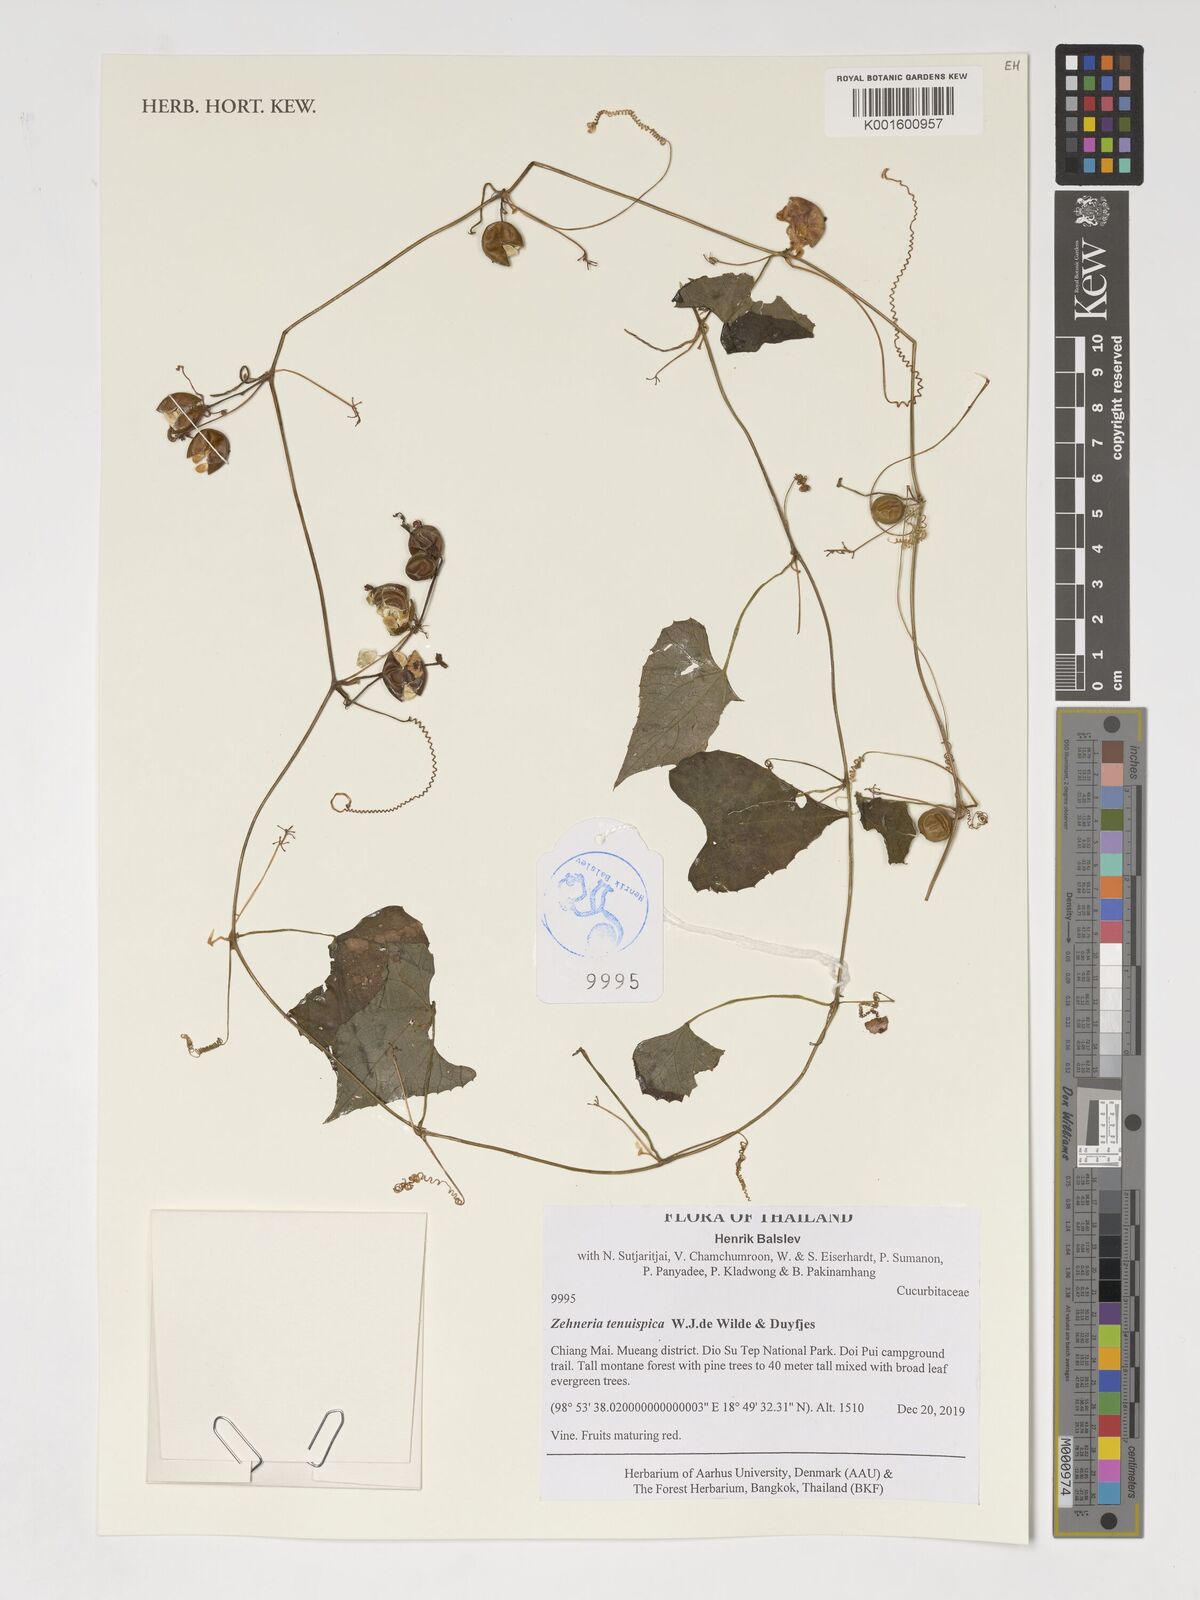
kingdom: Plantae
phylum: Tracheophyta
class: Magnoliopsida
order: Cucurbitales
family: Cucurbitaceae
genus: Zehneria
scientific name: Zehneria tenuispica
